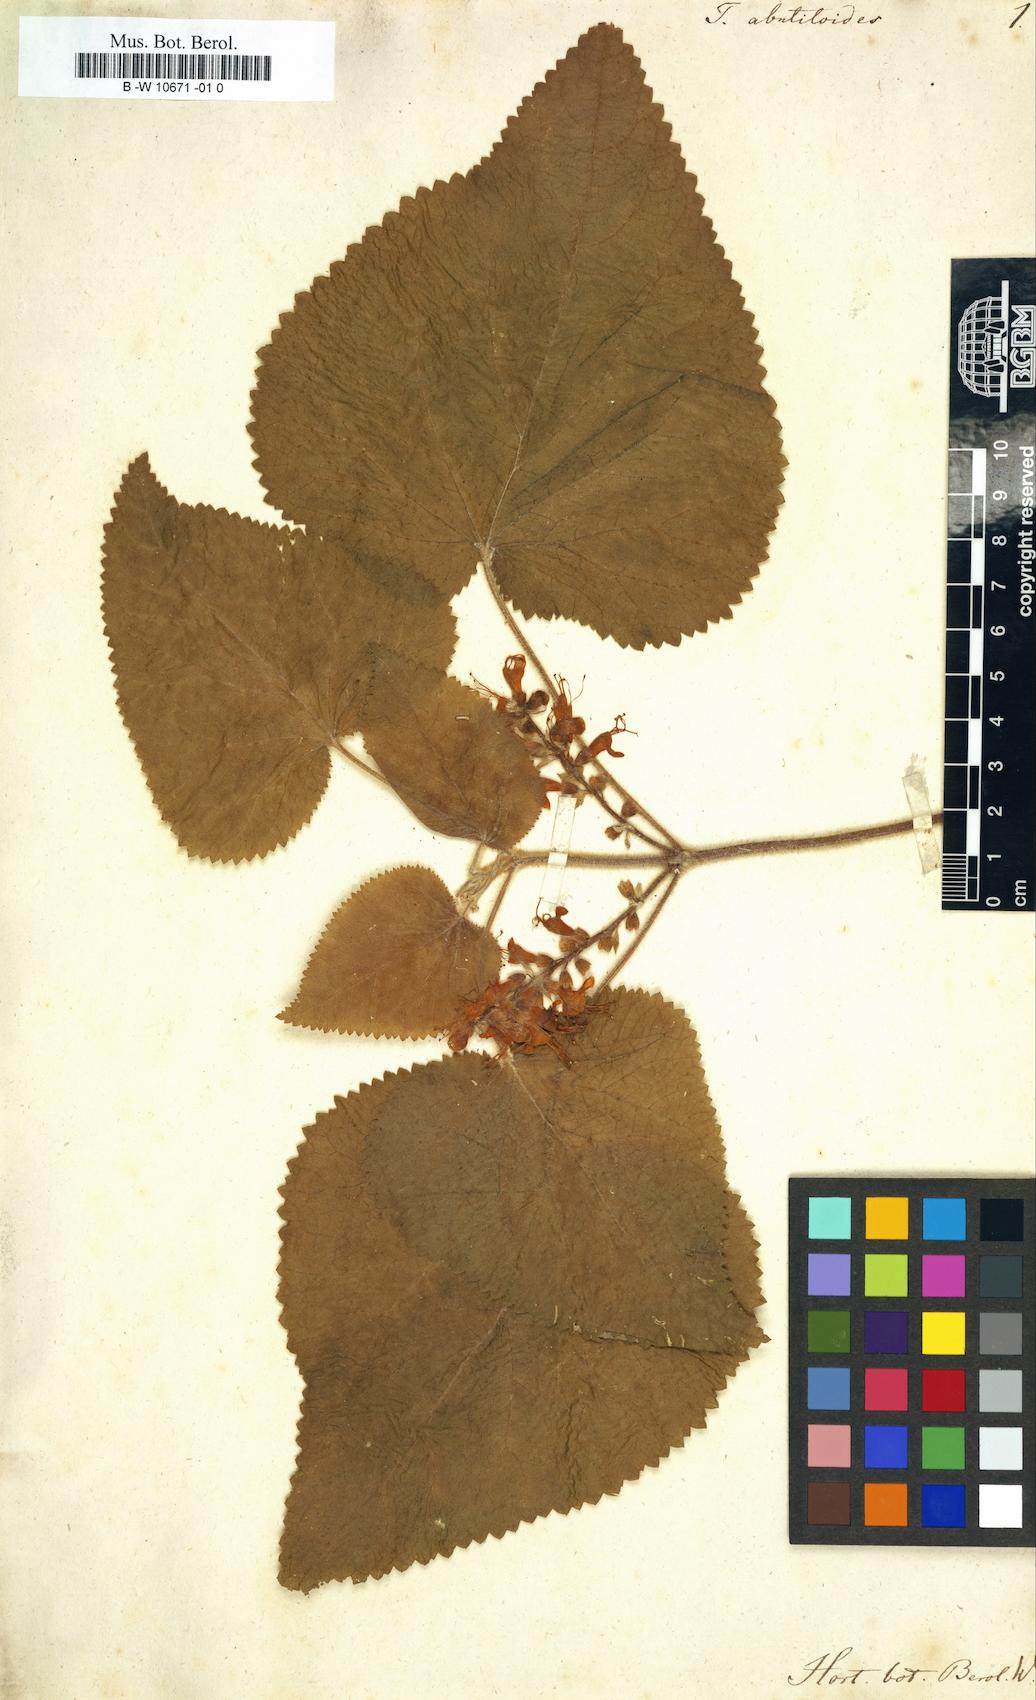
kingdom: Plantae
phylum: Tracheophyta
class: Magnoliopsida
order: Lamiales
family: Lamiaceae
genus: Teucrium
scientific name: Teucrium abutiloides
